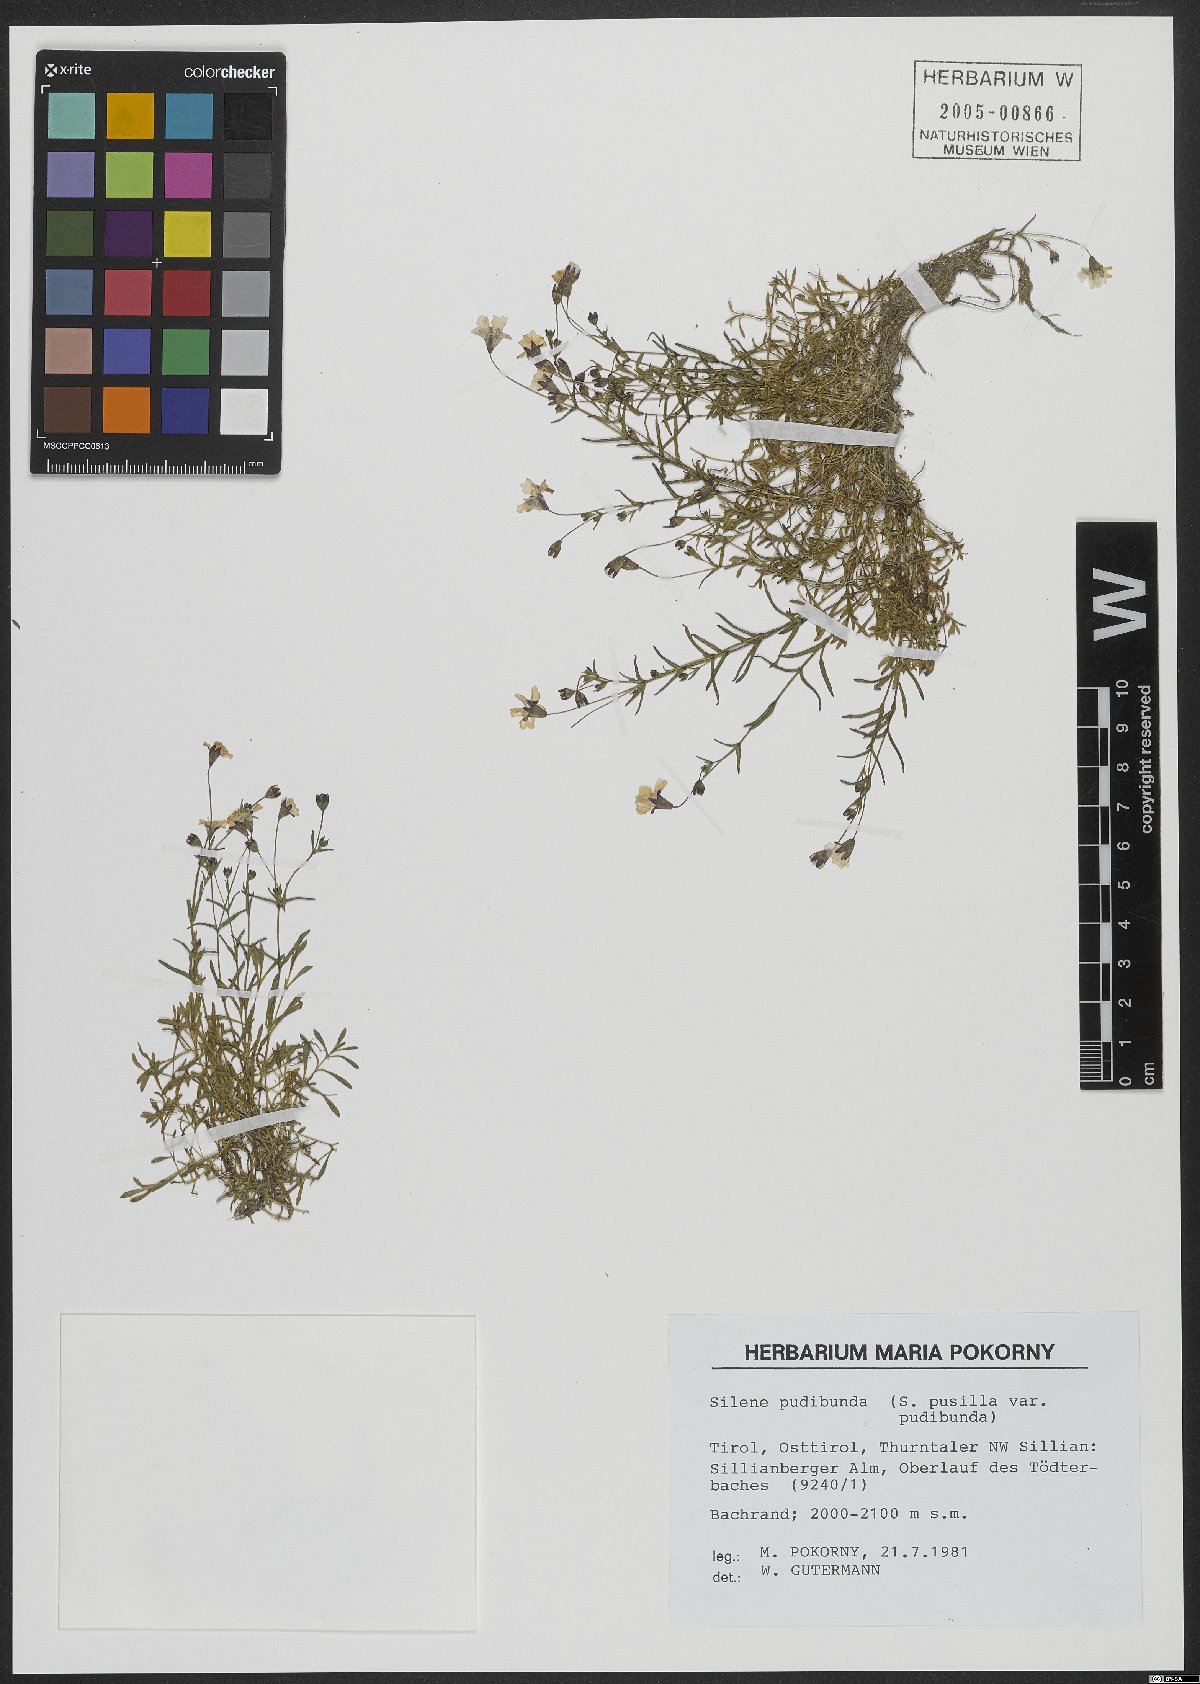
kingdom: Plantae
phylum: Tracheophyta
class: Magnoliopsida
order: Caryophyllales
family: Caryophyllaceae
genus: Heliosperma
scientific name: Heliosperma pudibundum
